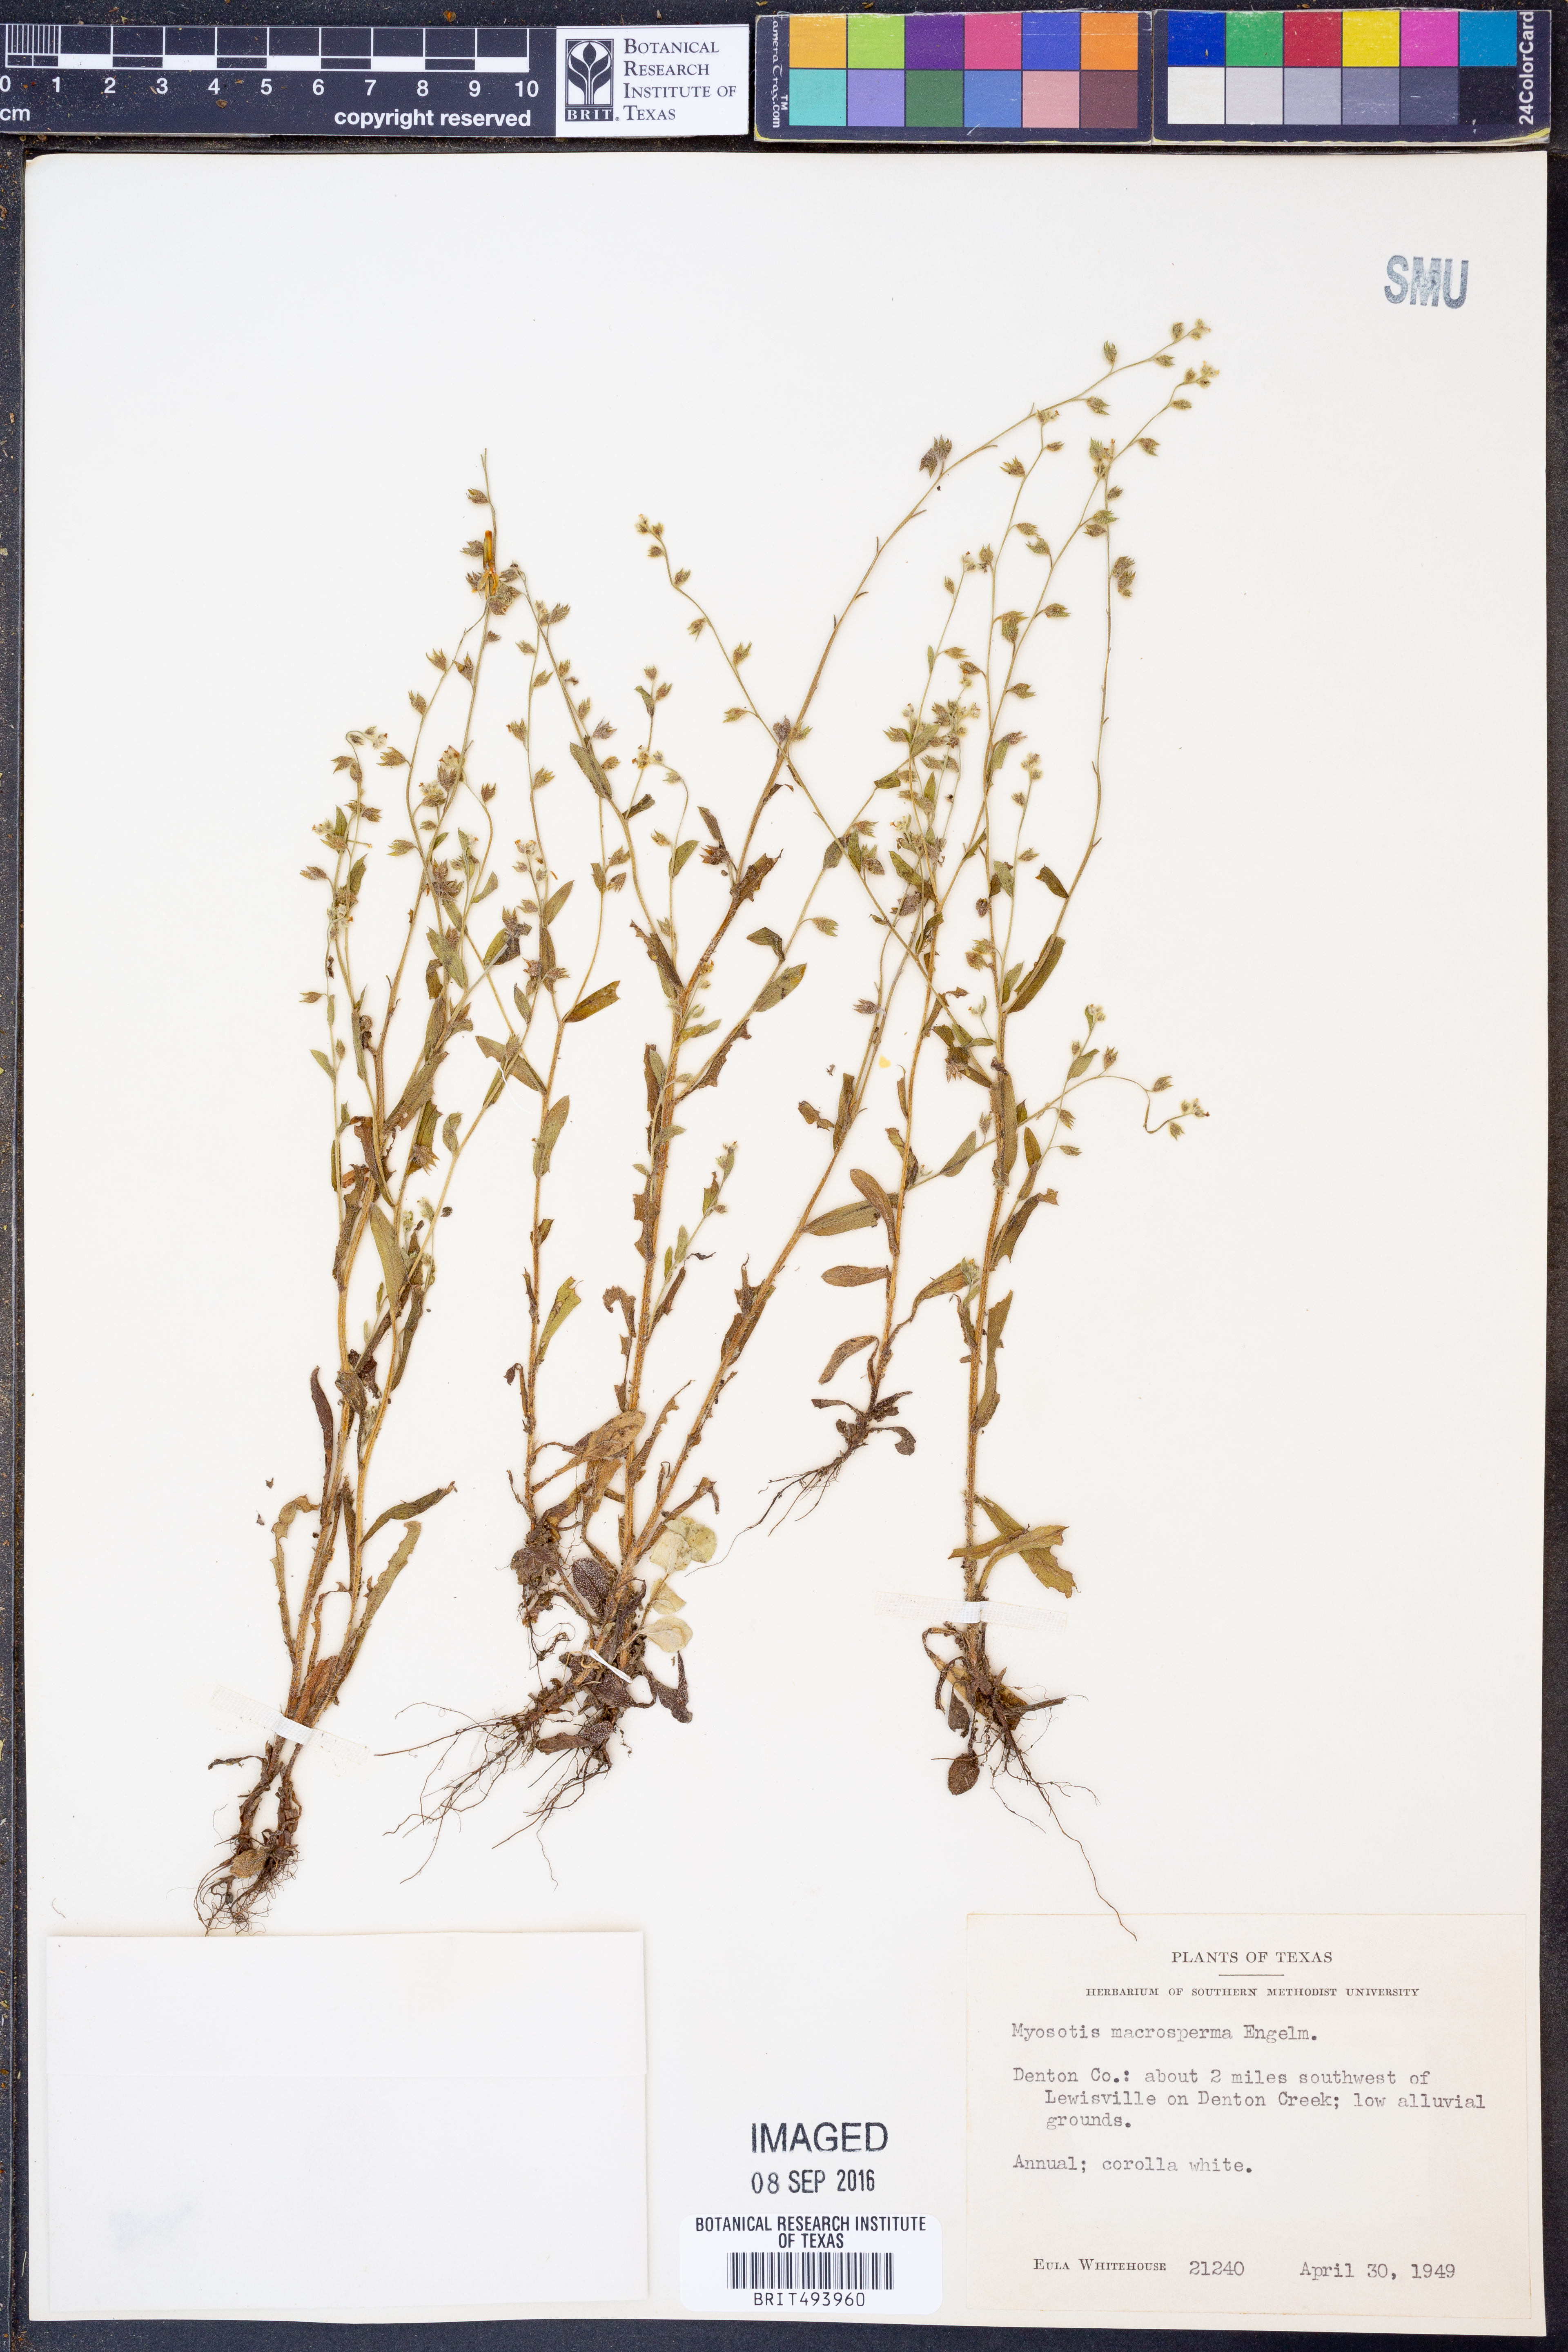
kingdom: Plantae
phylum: Tracheophyta
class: Magnoliopsida
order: Boraginales
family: Boraginaceae
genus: Myosotis
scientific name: Myosotis macrosperma
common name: Large-seed forget-me-not
